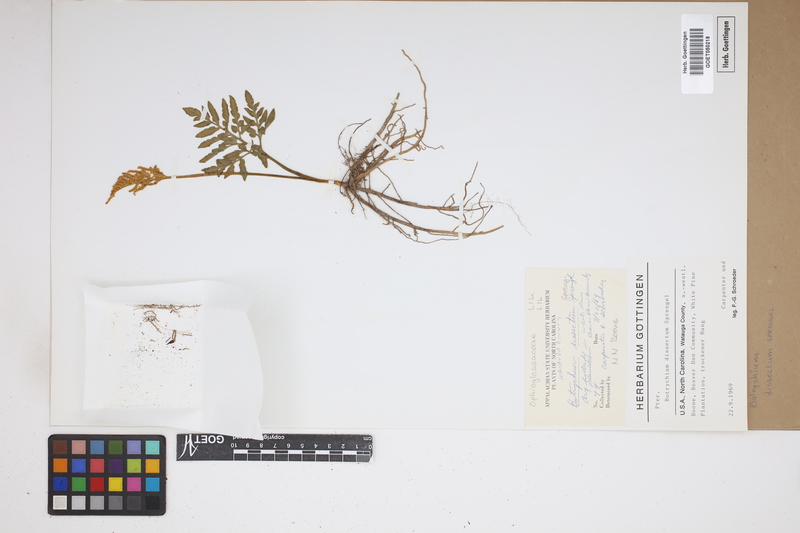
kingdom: Plantae
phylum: Tracheophyta
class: Polypodiopsida
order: Ophioglossales
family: Ophioglossaceae
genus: Sceptridium
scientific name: Sceptridium dissectum
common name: Cut-leaved grapefern
